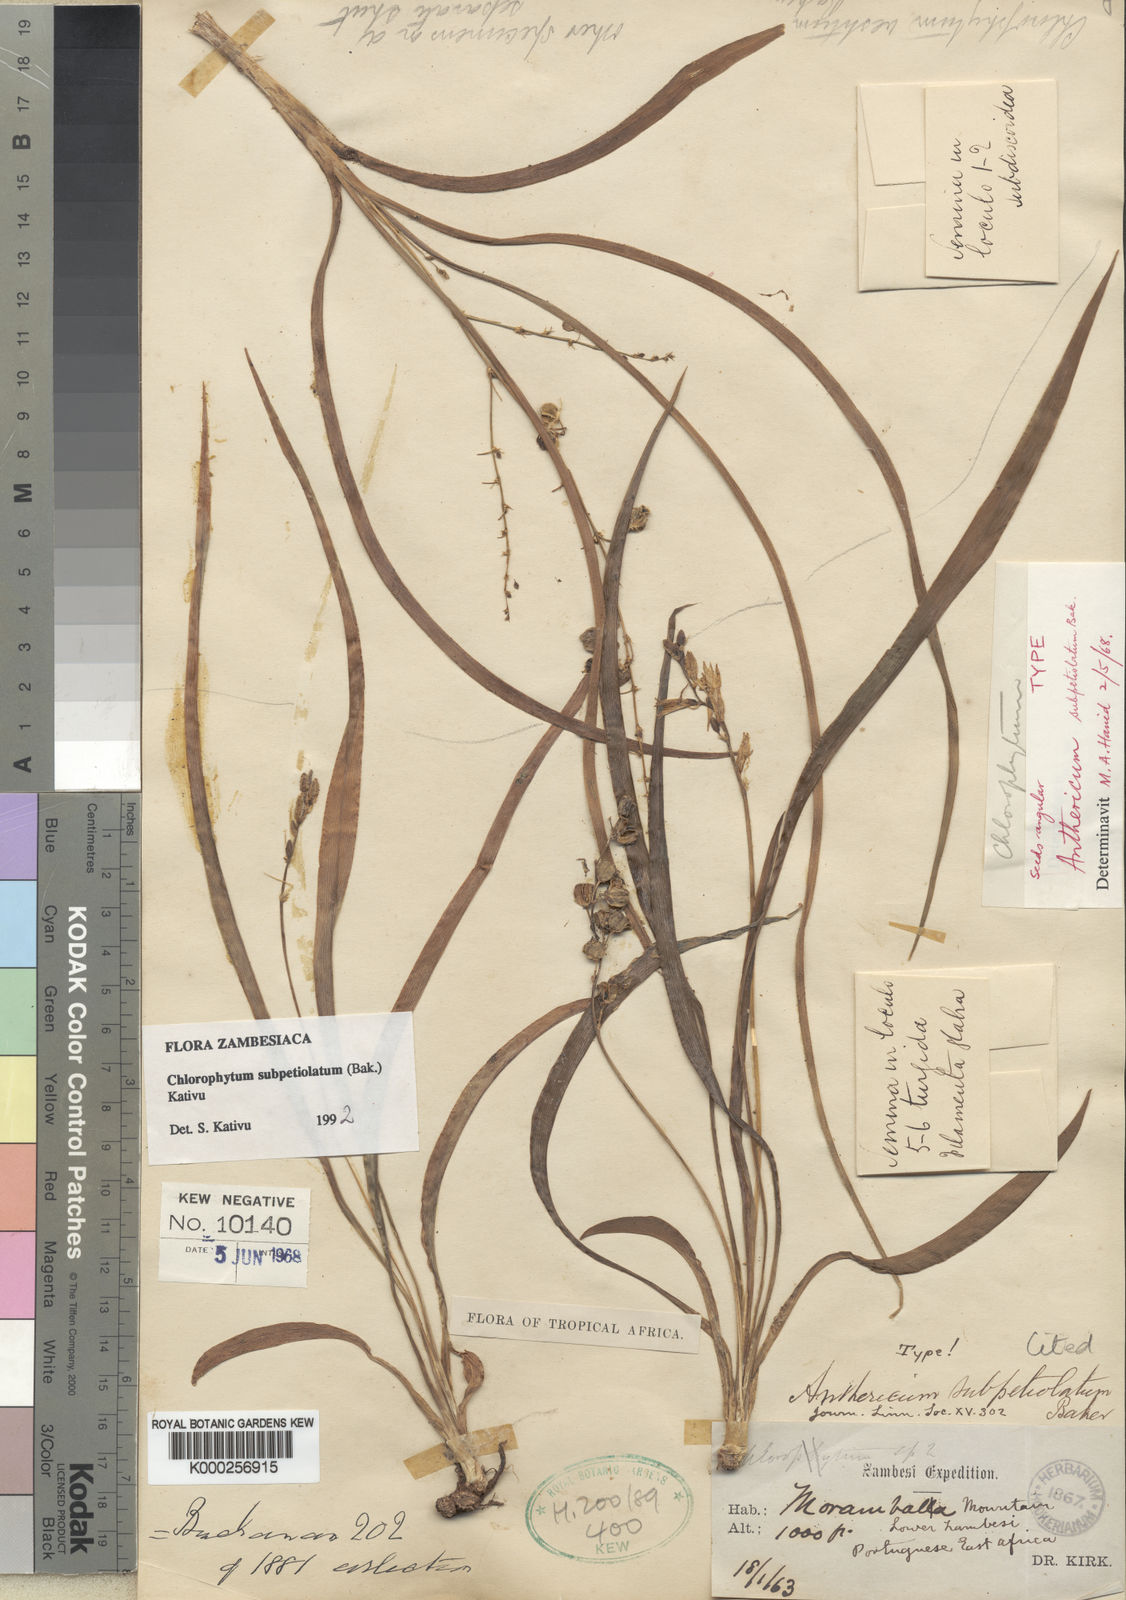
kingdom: Plantae
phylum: Tracheophyta
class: Liliopsida
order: Asparagales
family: Asparagaceae
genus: Chlorophytum
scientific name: Chlorophytum subpetiolatum
